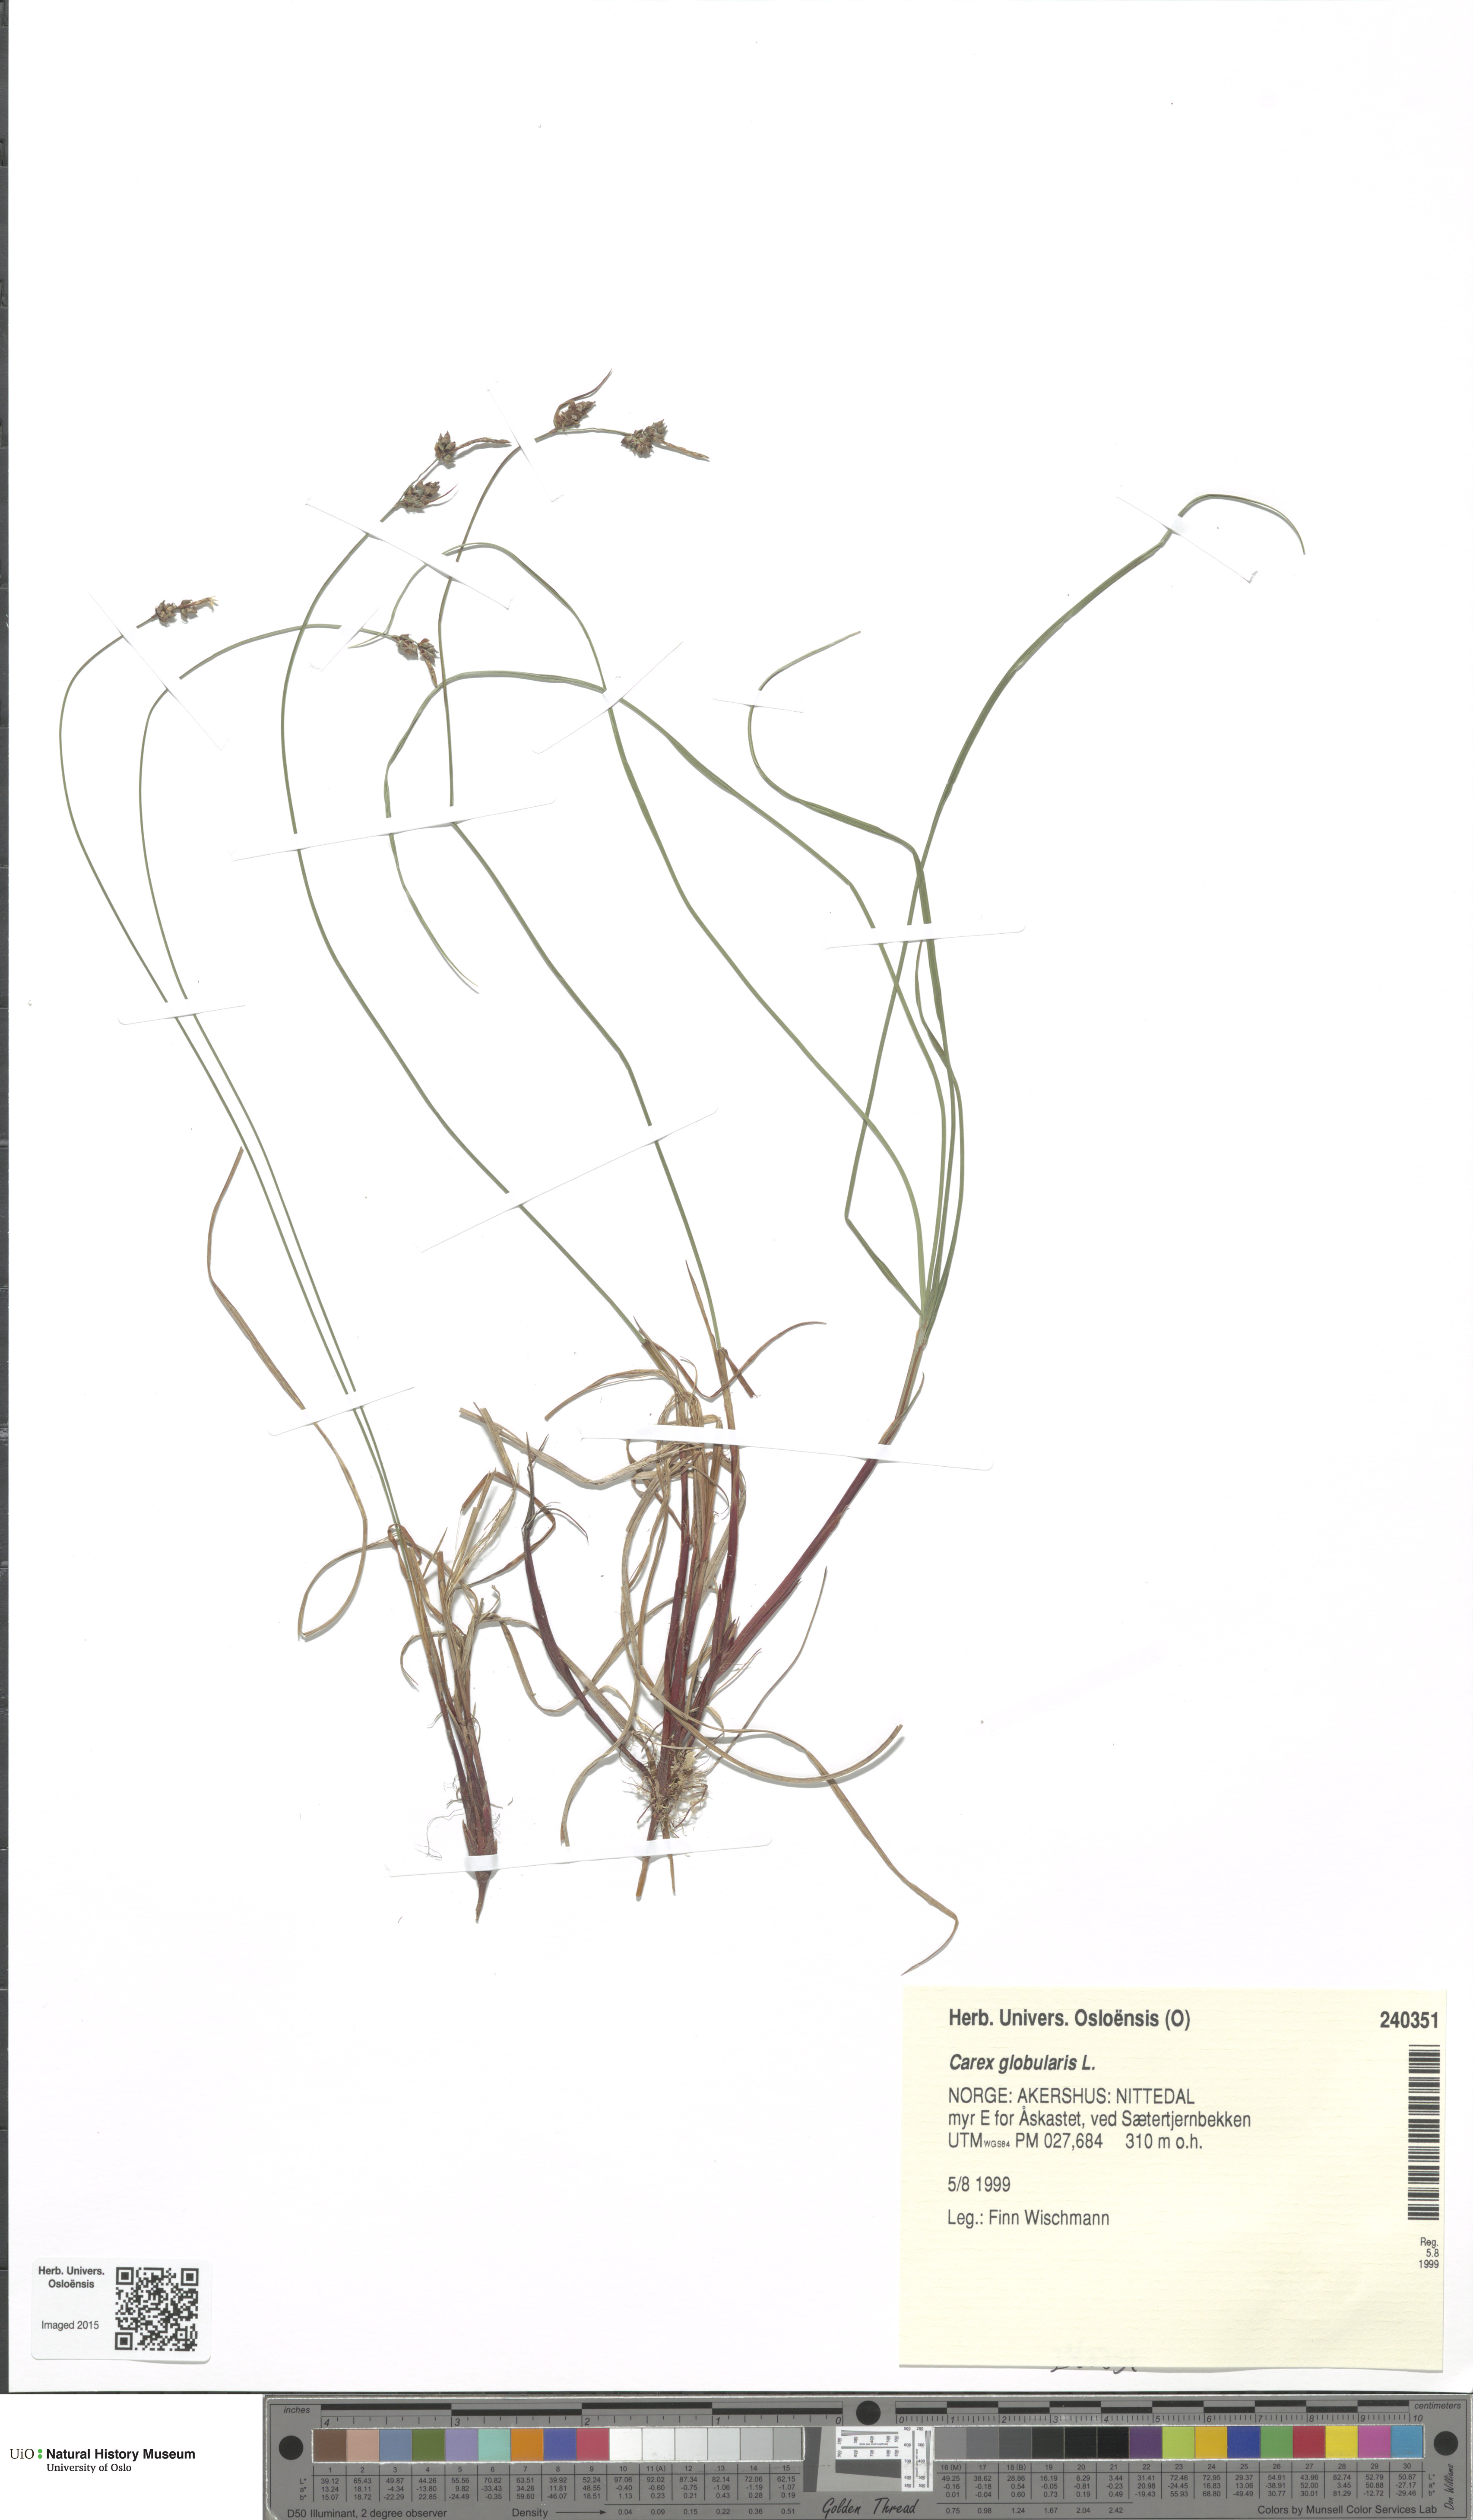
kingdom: Plantae
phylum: Tracheophyta
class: Liliopsida
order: Poales
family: Cyperaceae
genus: Carex
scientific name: Carex globularis
